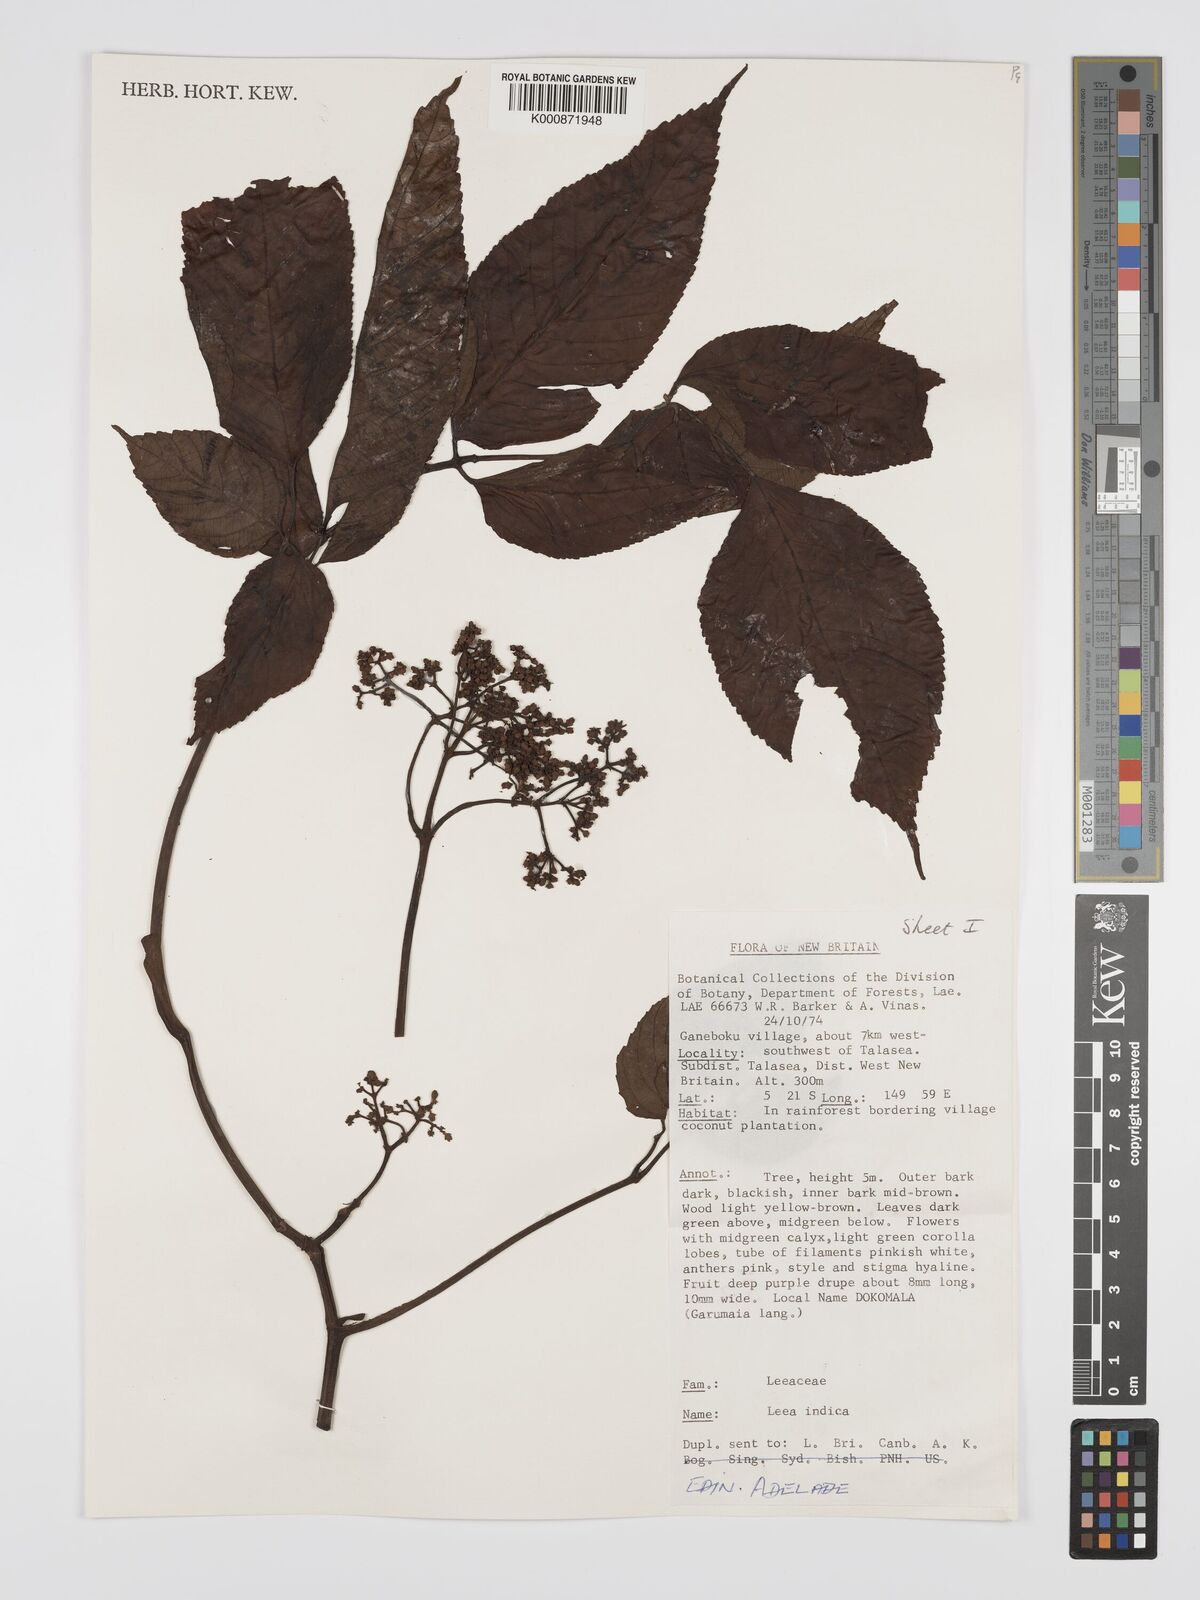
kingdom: Plantae
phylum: Tracheophyta
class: Magnoliopsida
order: Vitales
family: Vitaceae
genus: Leea
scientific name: Leea indica
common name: Bandicoot-berry
